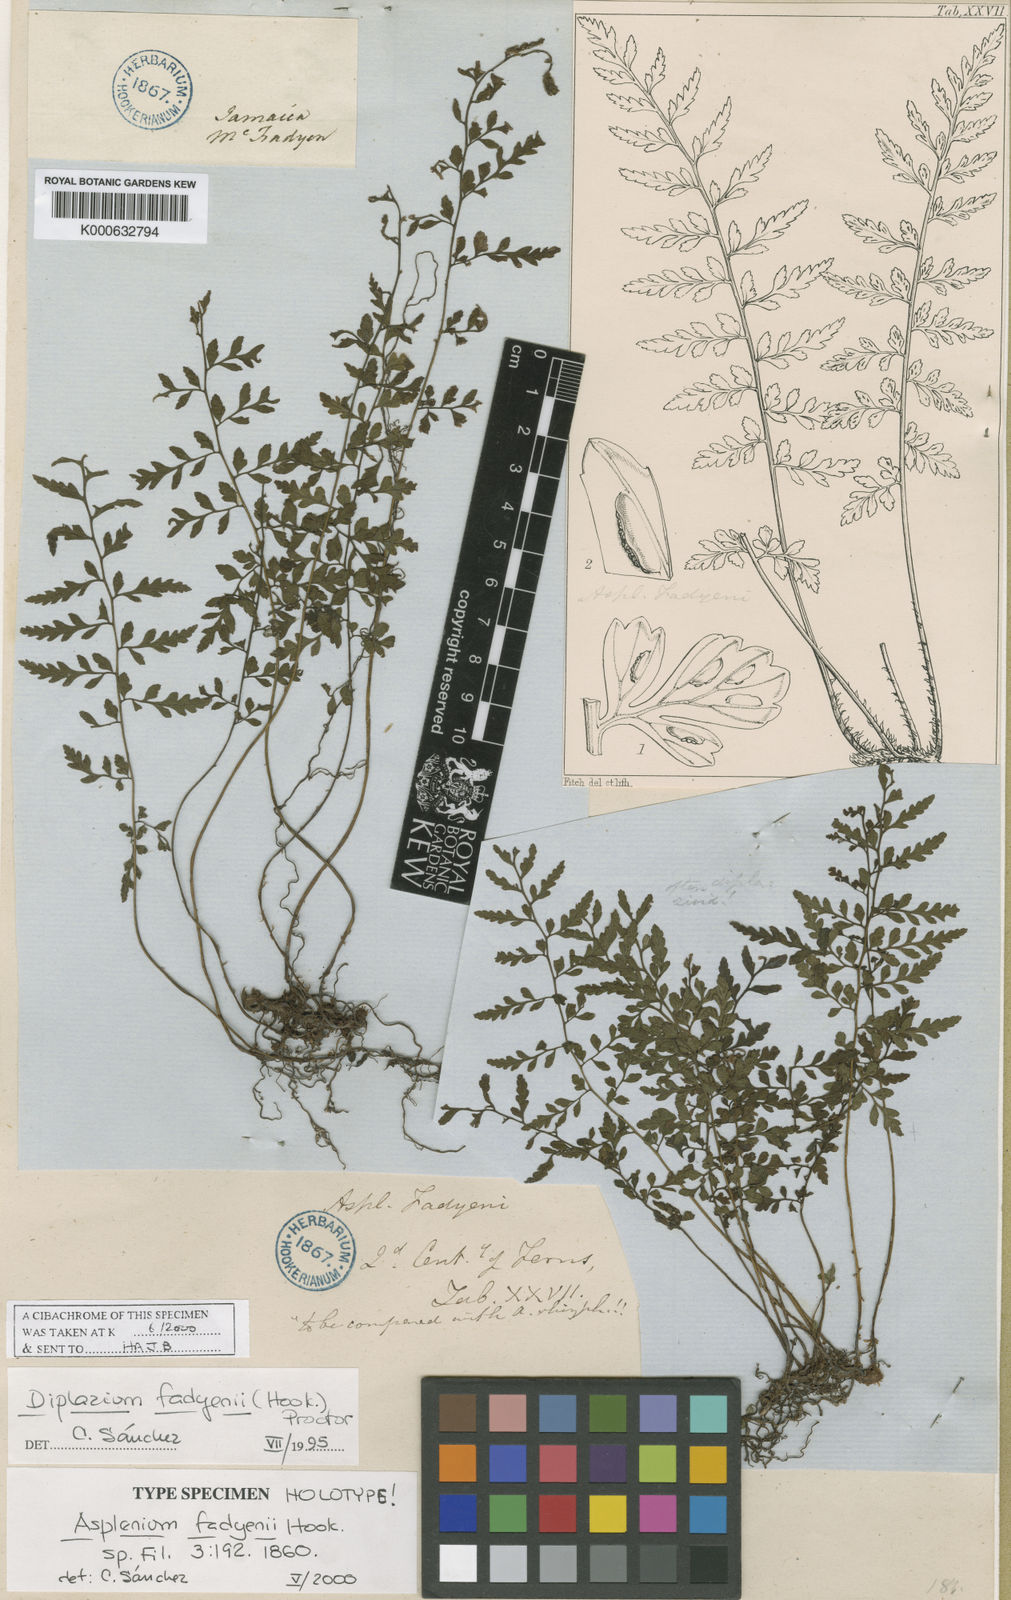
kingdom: Plantae
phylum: Tracheophyta
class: Polypodiopsida
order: Polypodiales
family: Athyriaceae
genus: Diplazium
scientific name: Diplazium fadyenii
